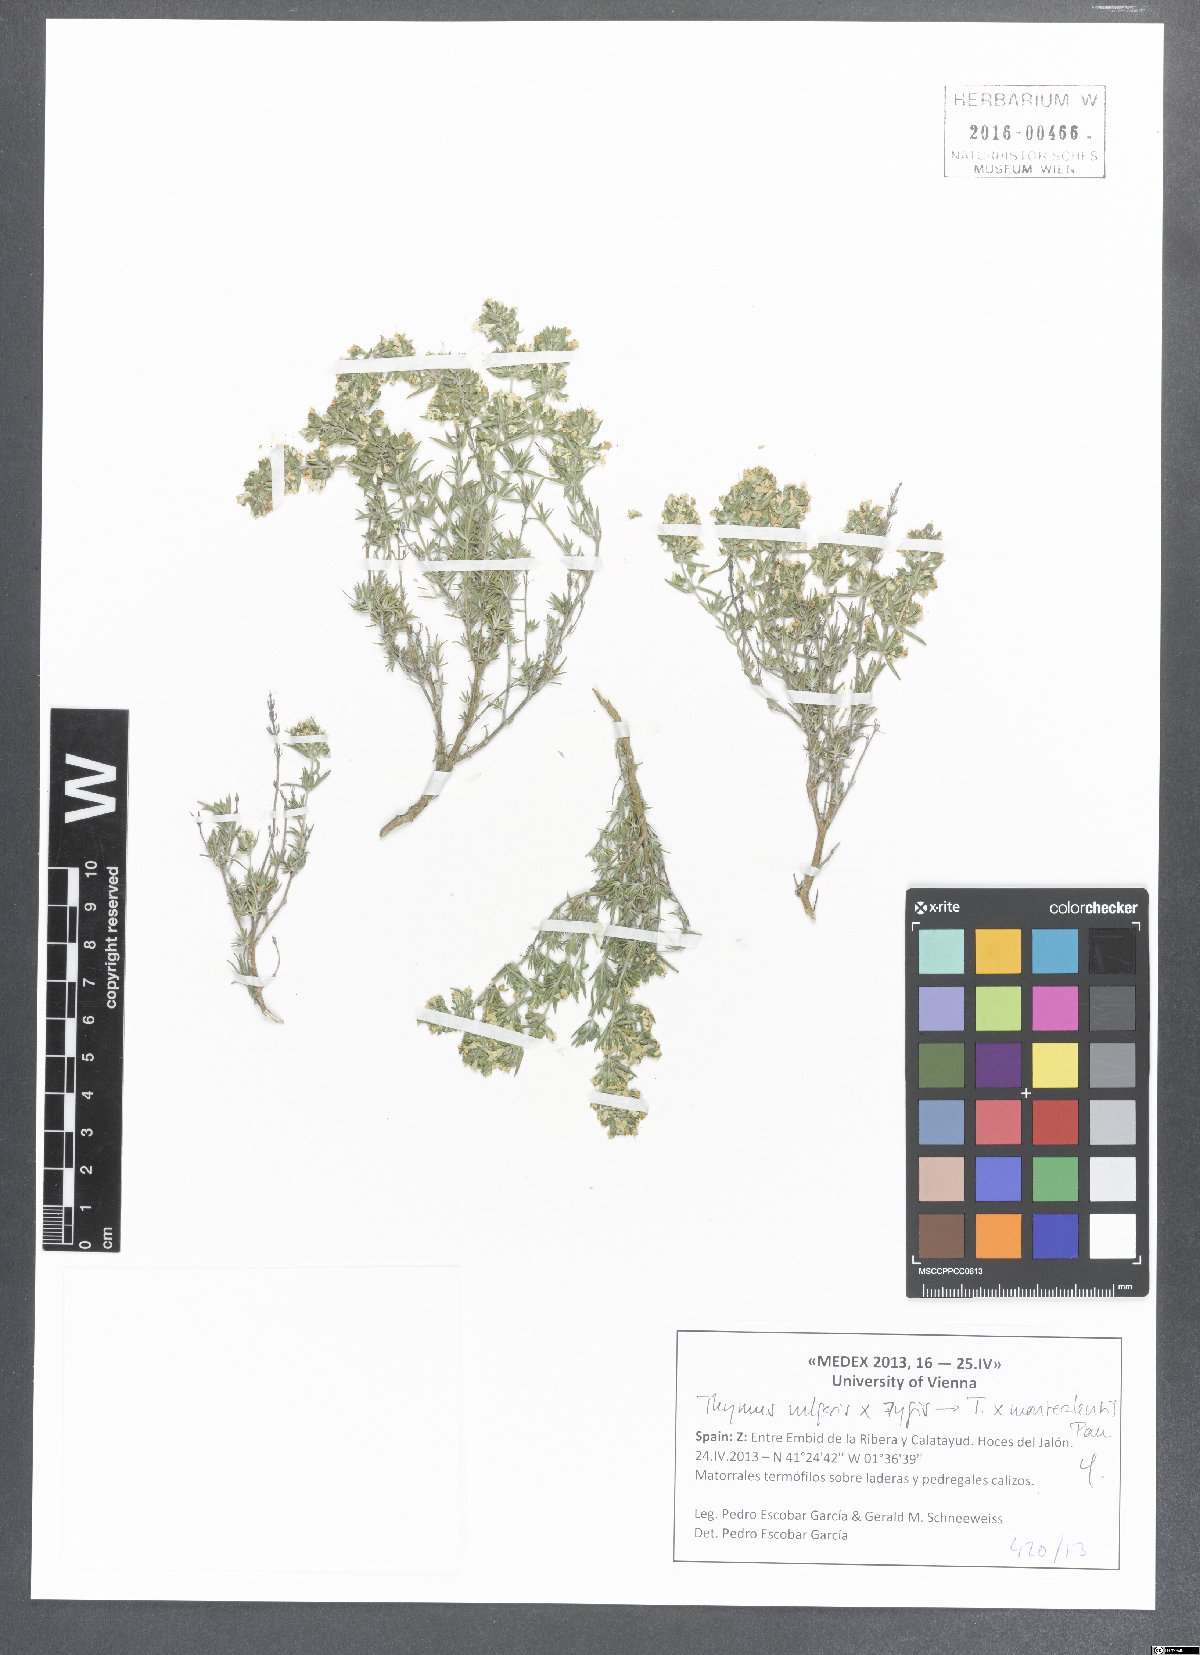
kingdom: Plantae
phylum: Tracheophyta
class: Magnoliopsida
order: Lamiales
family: Lamiaceae
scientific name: Lamiaceae
